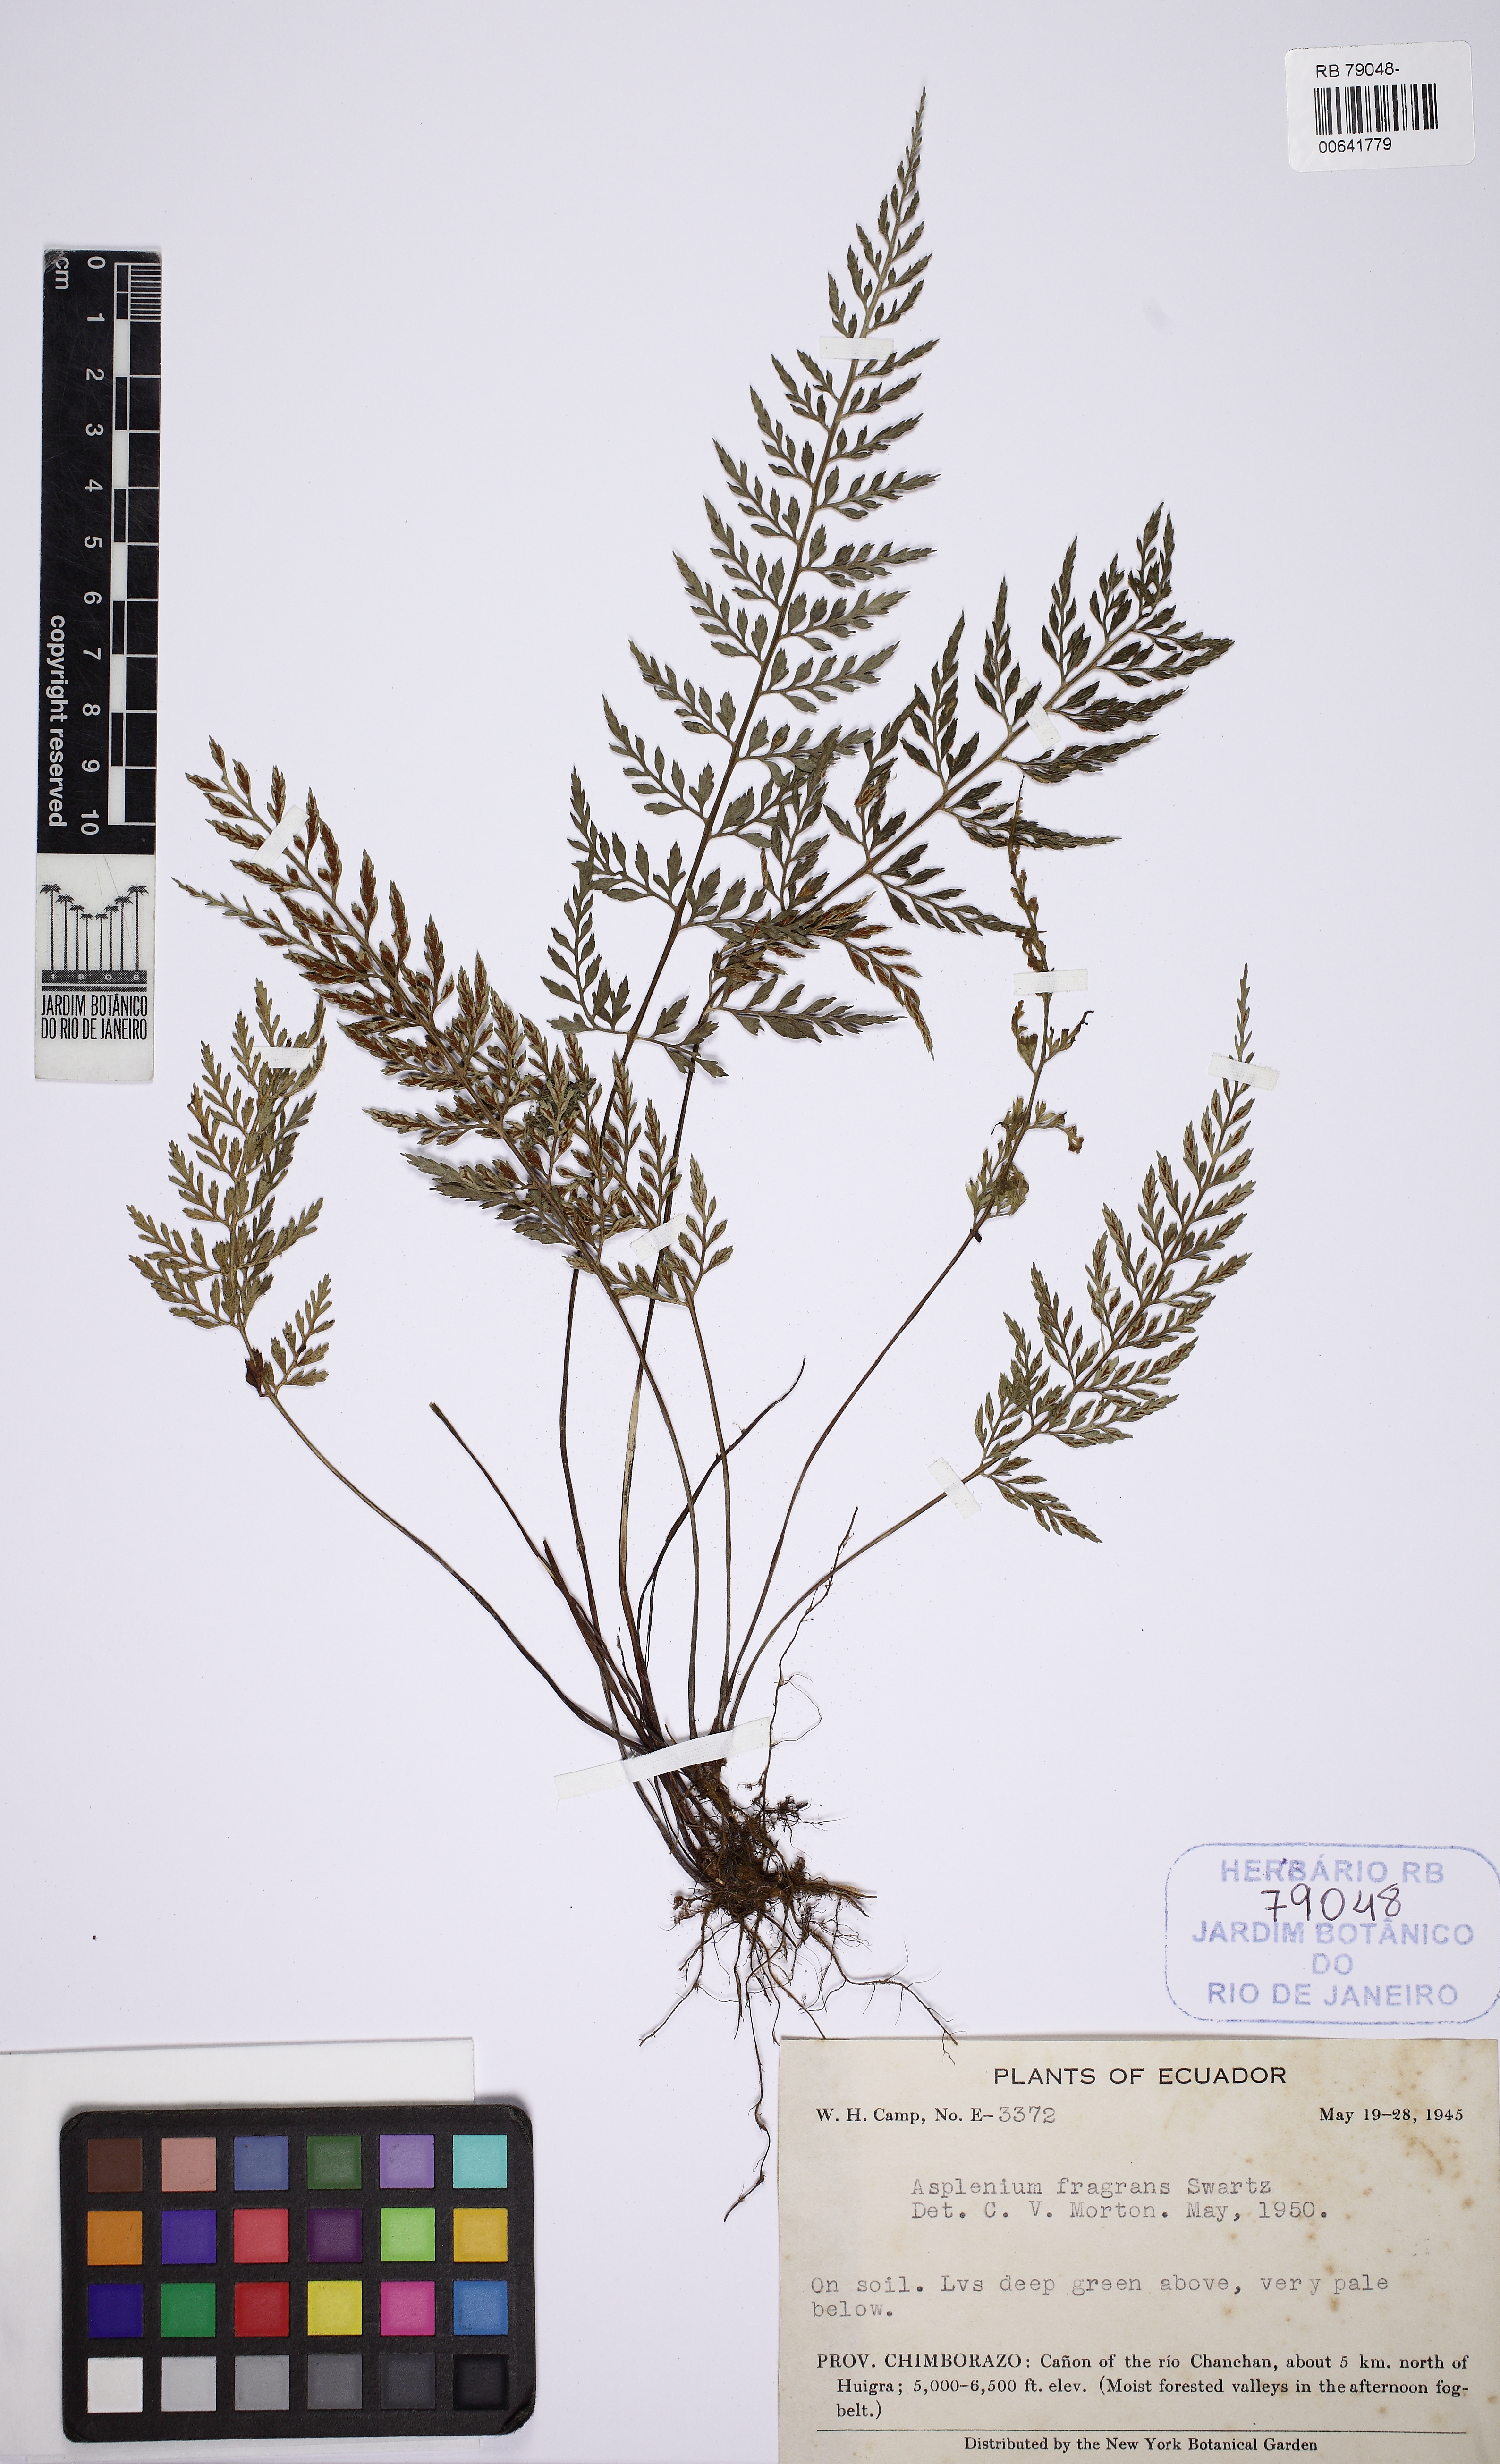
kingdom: Plantae
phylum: Tracheophyta
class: Polypodiopsida
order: Polypodiales
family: Aspleniaceae
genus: Asplenium
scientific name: Asplenium fragrans
